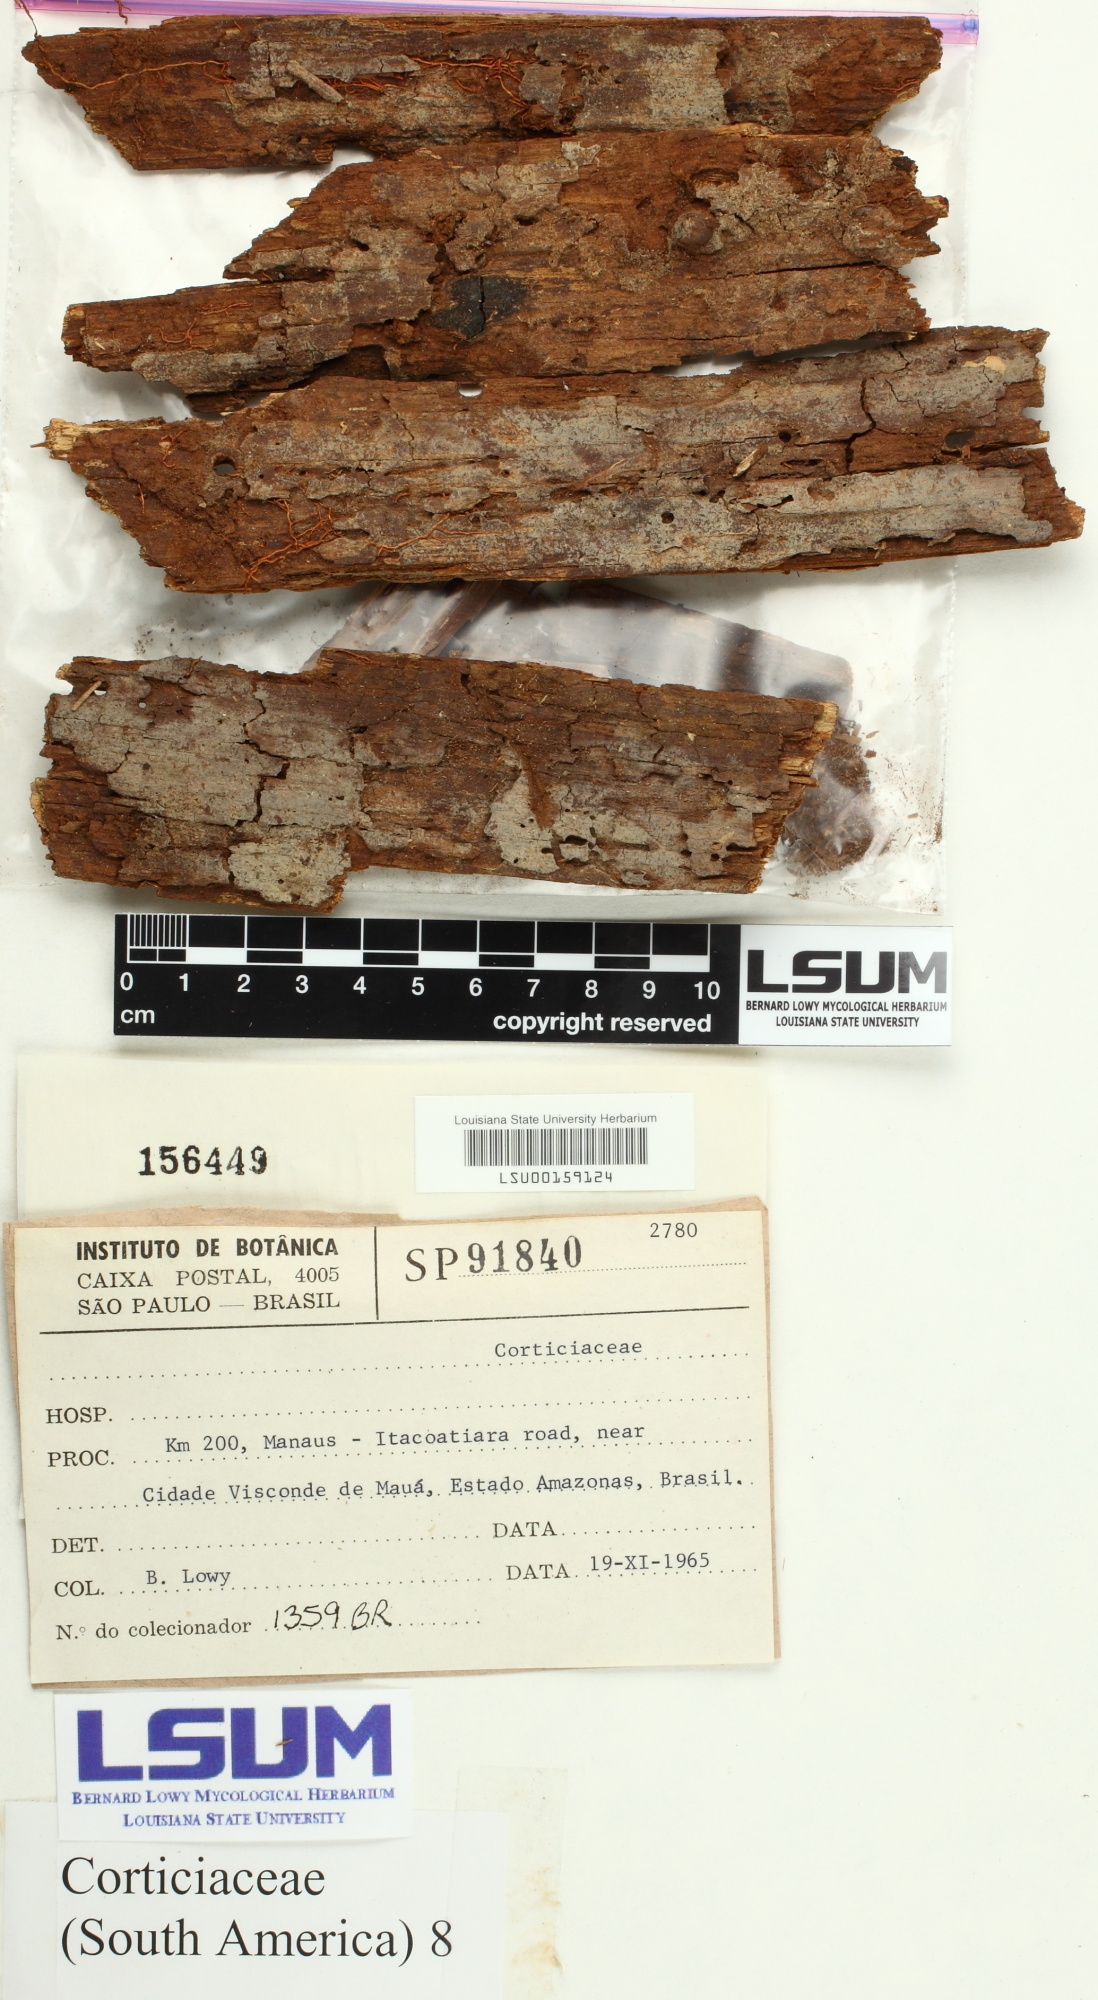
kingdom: Fungi
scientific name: Fungi
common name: Fungi
